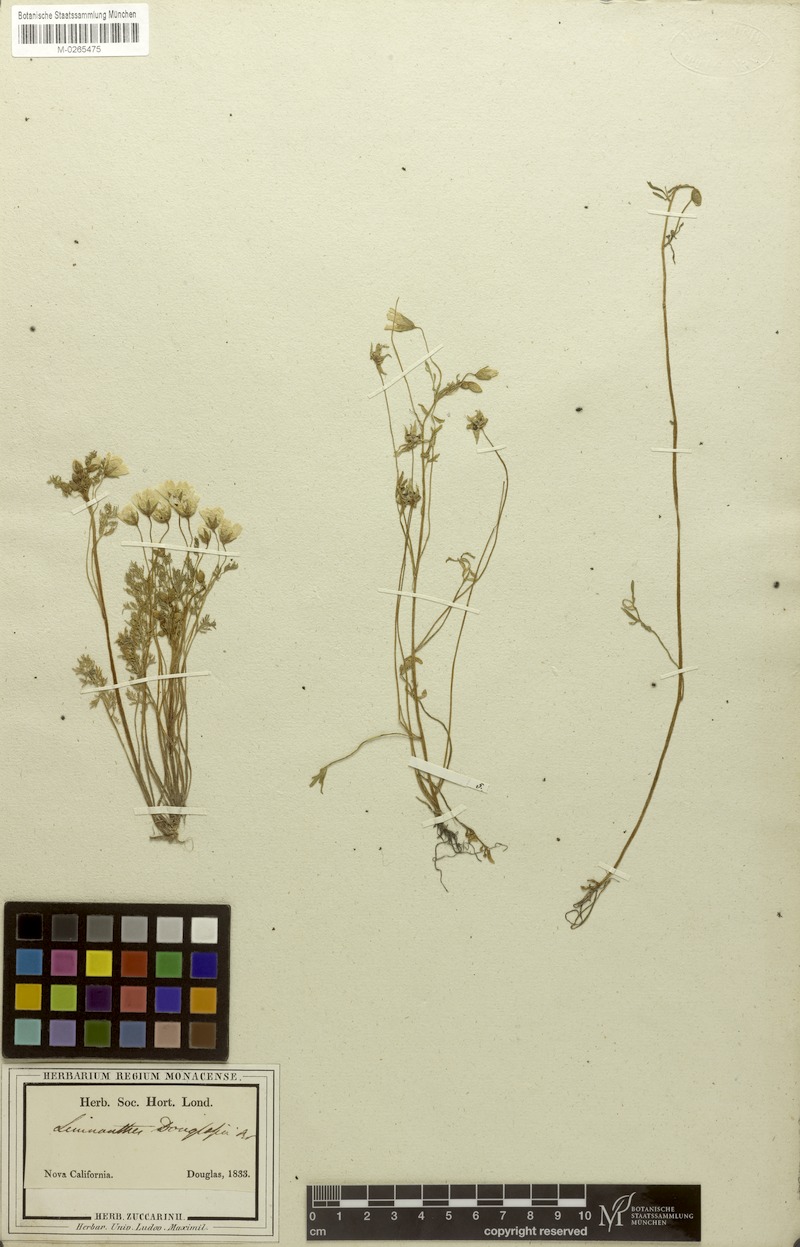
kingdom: Plantae
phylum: Tracheophyta
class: Magnoliopsida
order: Brassicales
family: Limnanthaceae
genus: Limnanthes
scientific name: Limnanthes douglasii
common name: Meadow-foam
